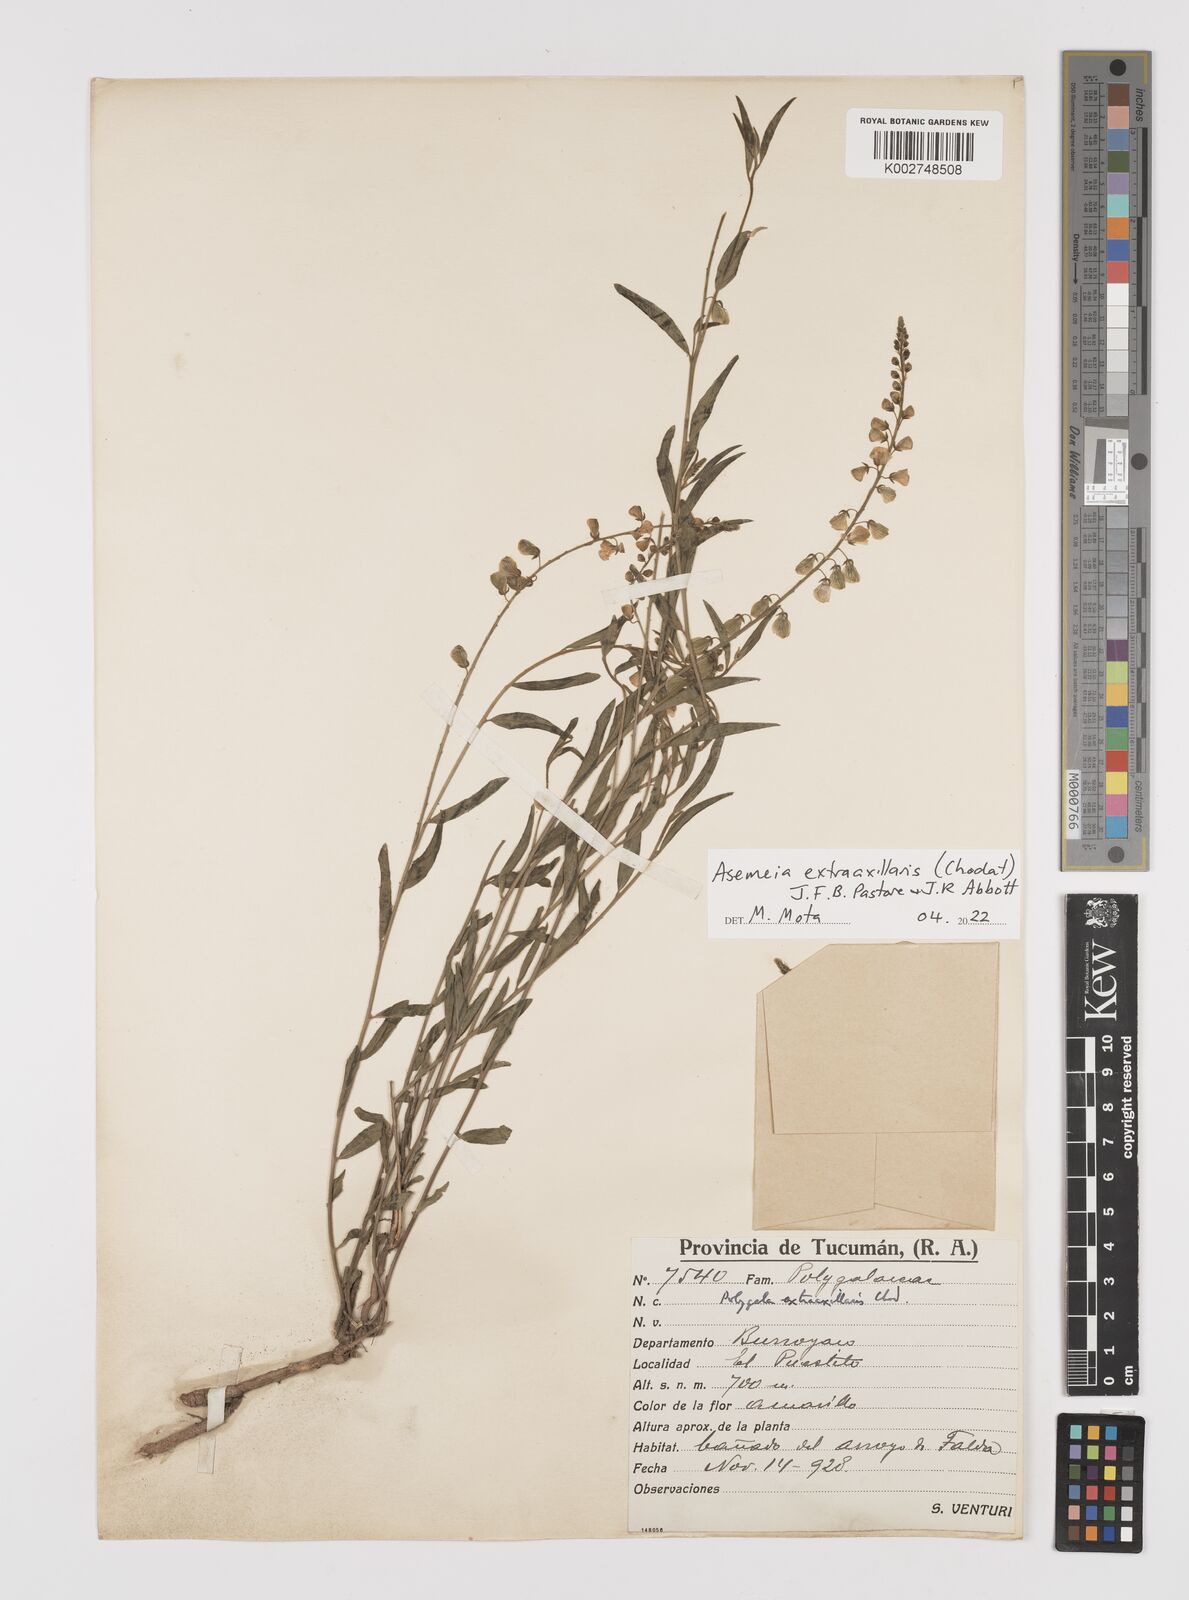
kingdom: Plantae
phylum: Tracheophyta
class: Magnoliopsida
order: Fabales
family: Polygalaceae
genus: Asemeia
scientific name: Asemeia extraaxillaris
